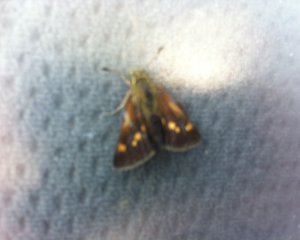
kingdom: Animalia
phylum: Arthropoda
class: Insecta
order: Lepidoptera
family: Hesperiidae
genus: Polites
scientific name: Polites
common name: Long Dash Skipper
